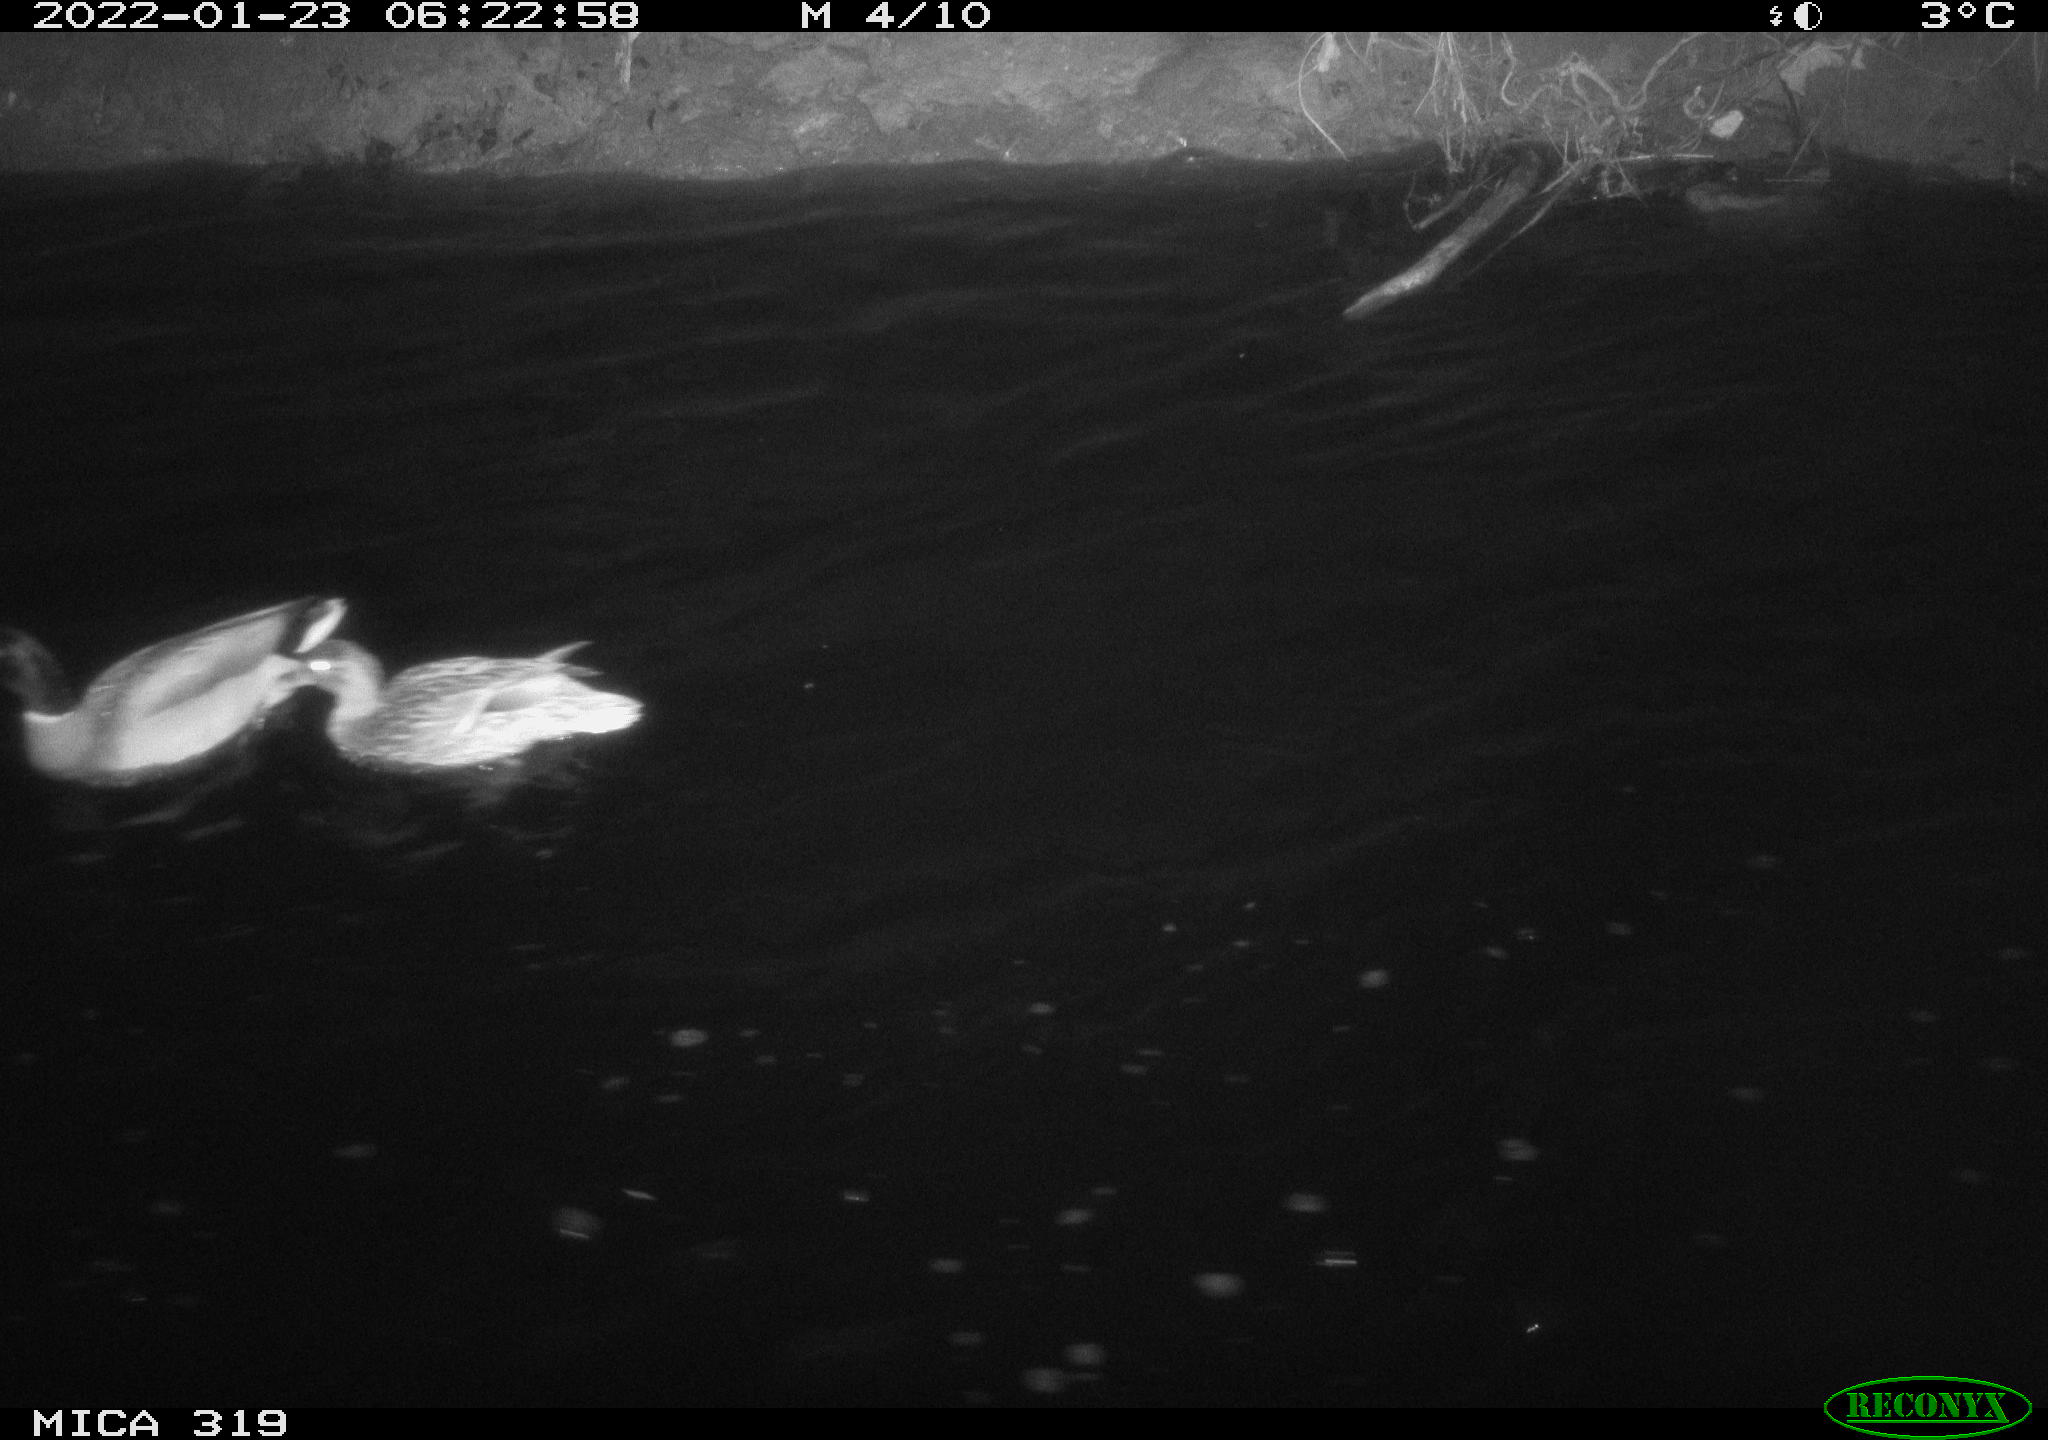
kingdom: Animalia
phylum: Chordata
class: Aves
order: Anseriformes
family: Anatidae
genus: Anas
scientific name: Anas platyrhynchos
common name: Mallard
